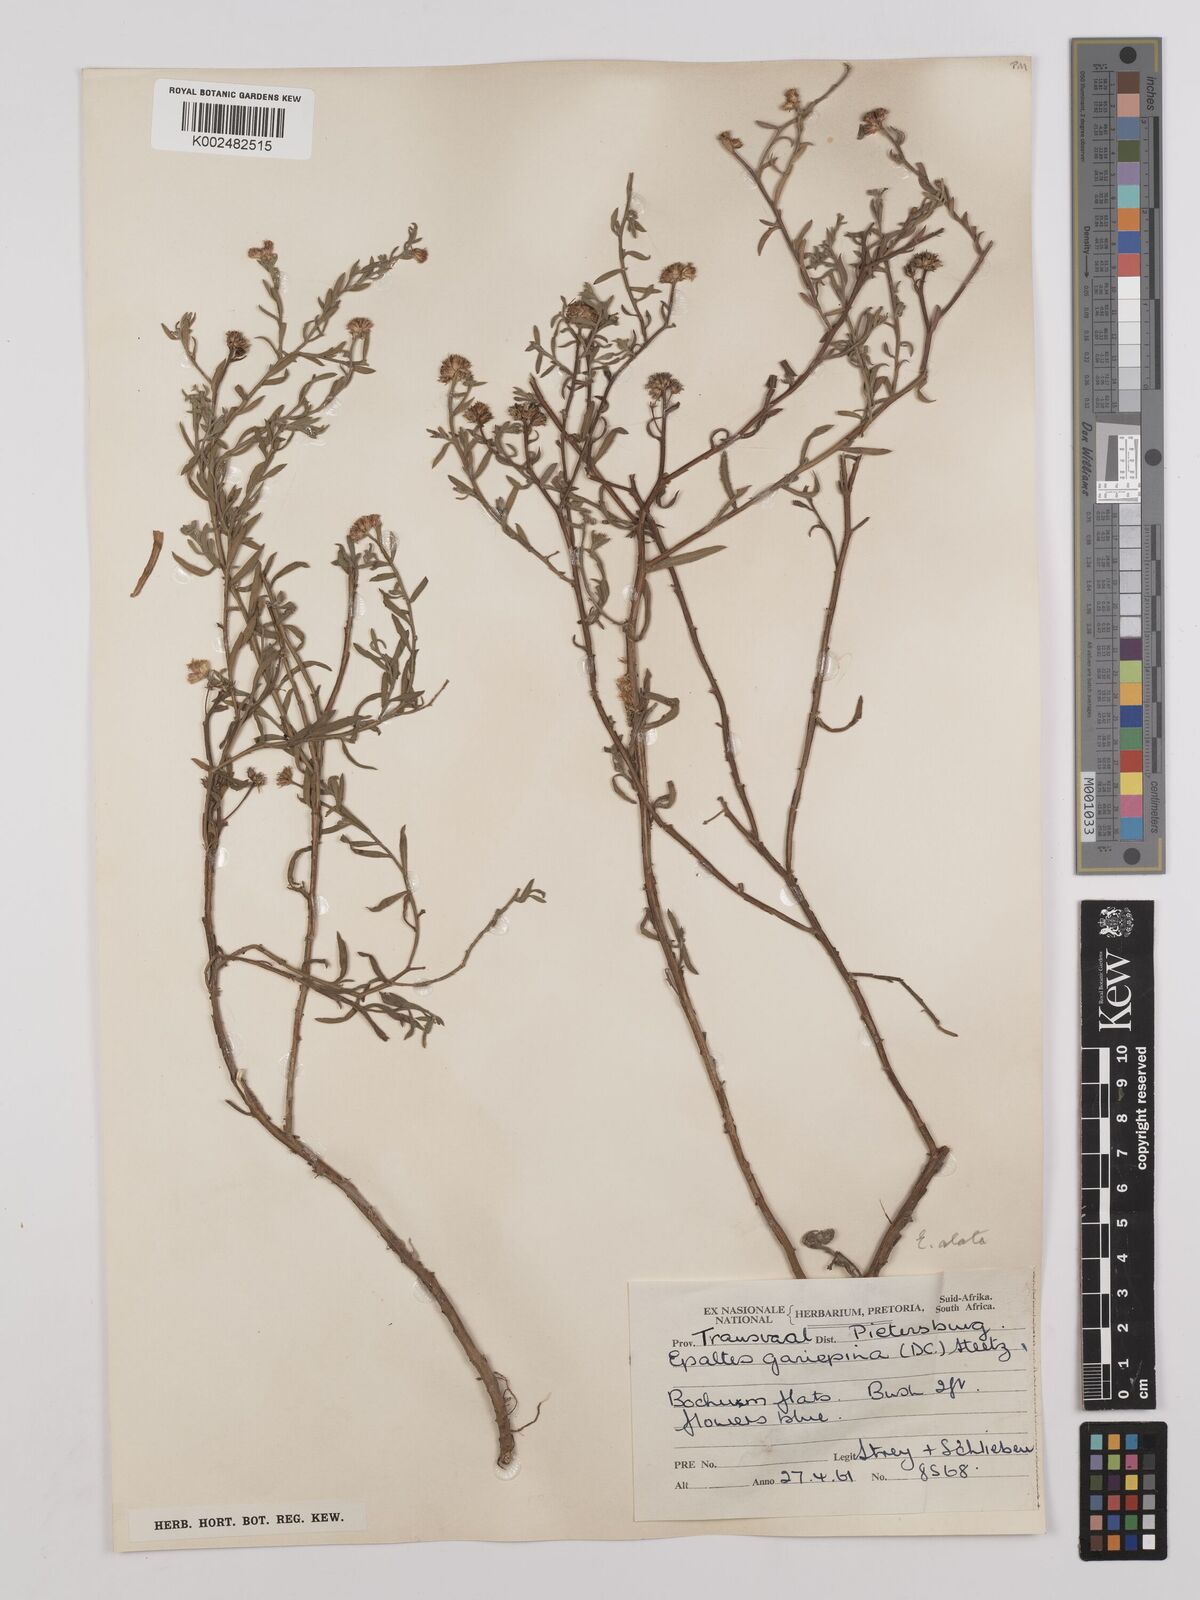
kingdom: Plantae
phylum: Tracheophyta
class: Magnoliopsida
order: Asterales
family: Asteraceae
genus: Litogyne
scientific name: Litogyne gariepina
